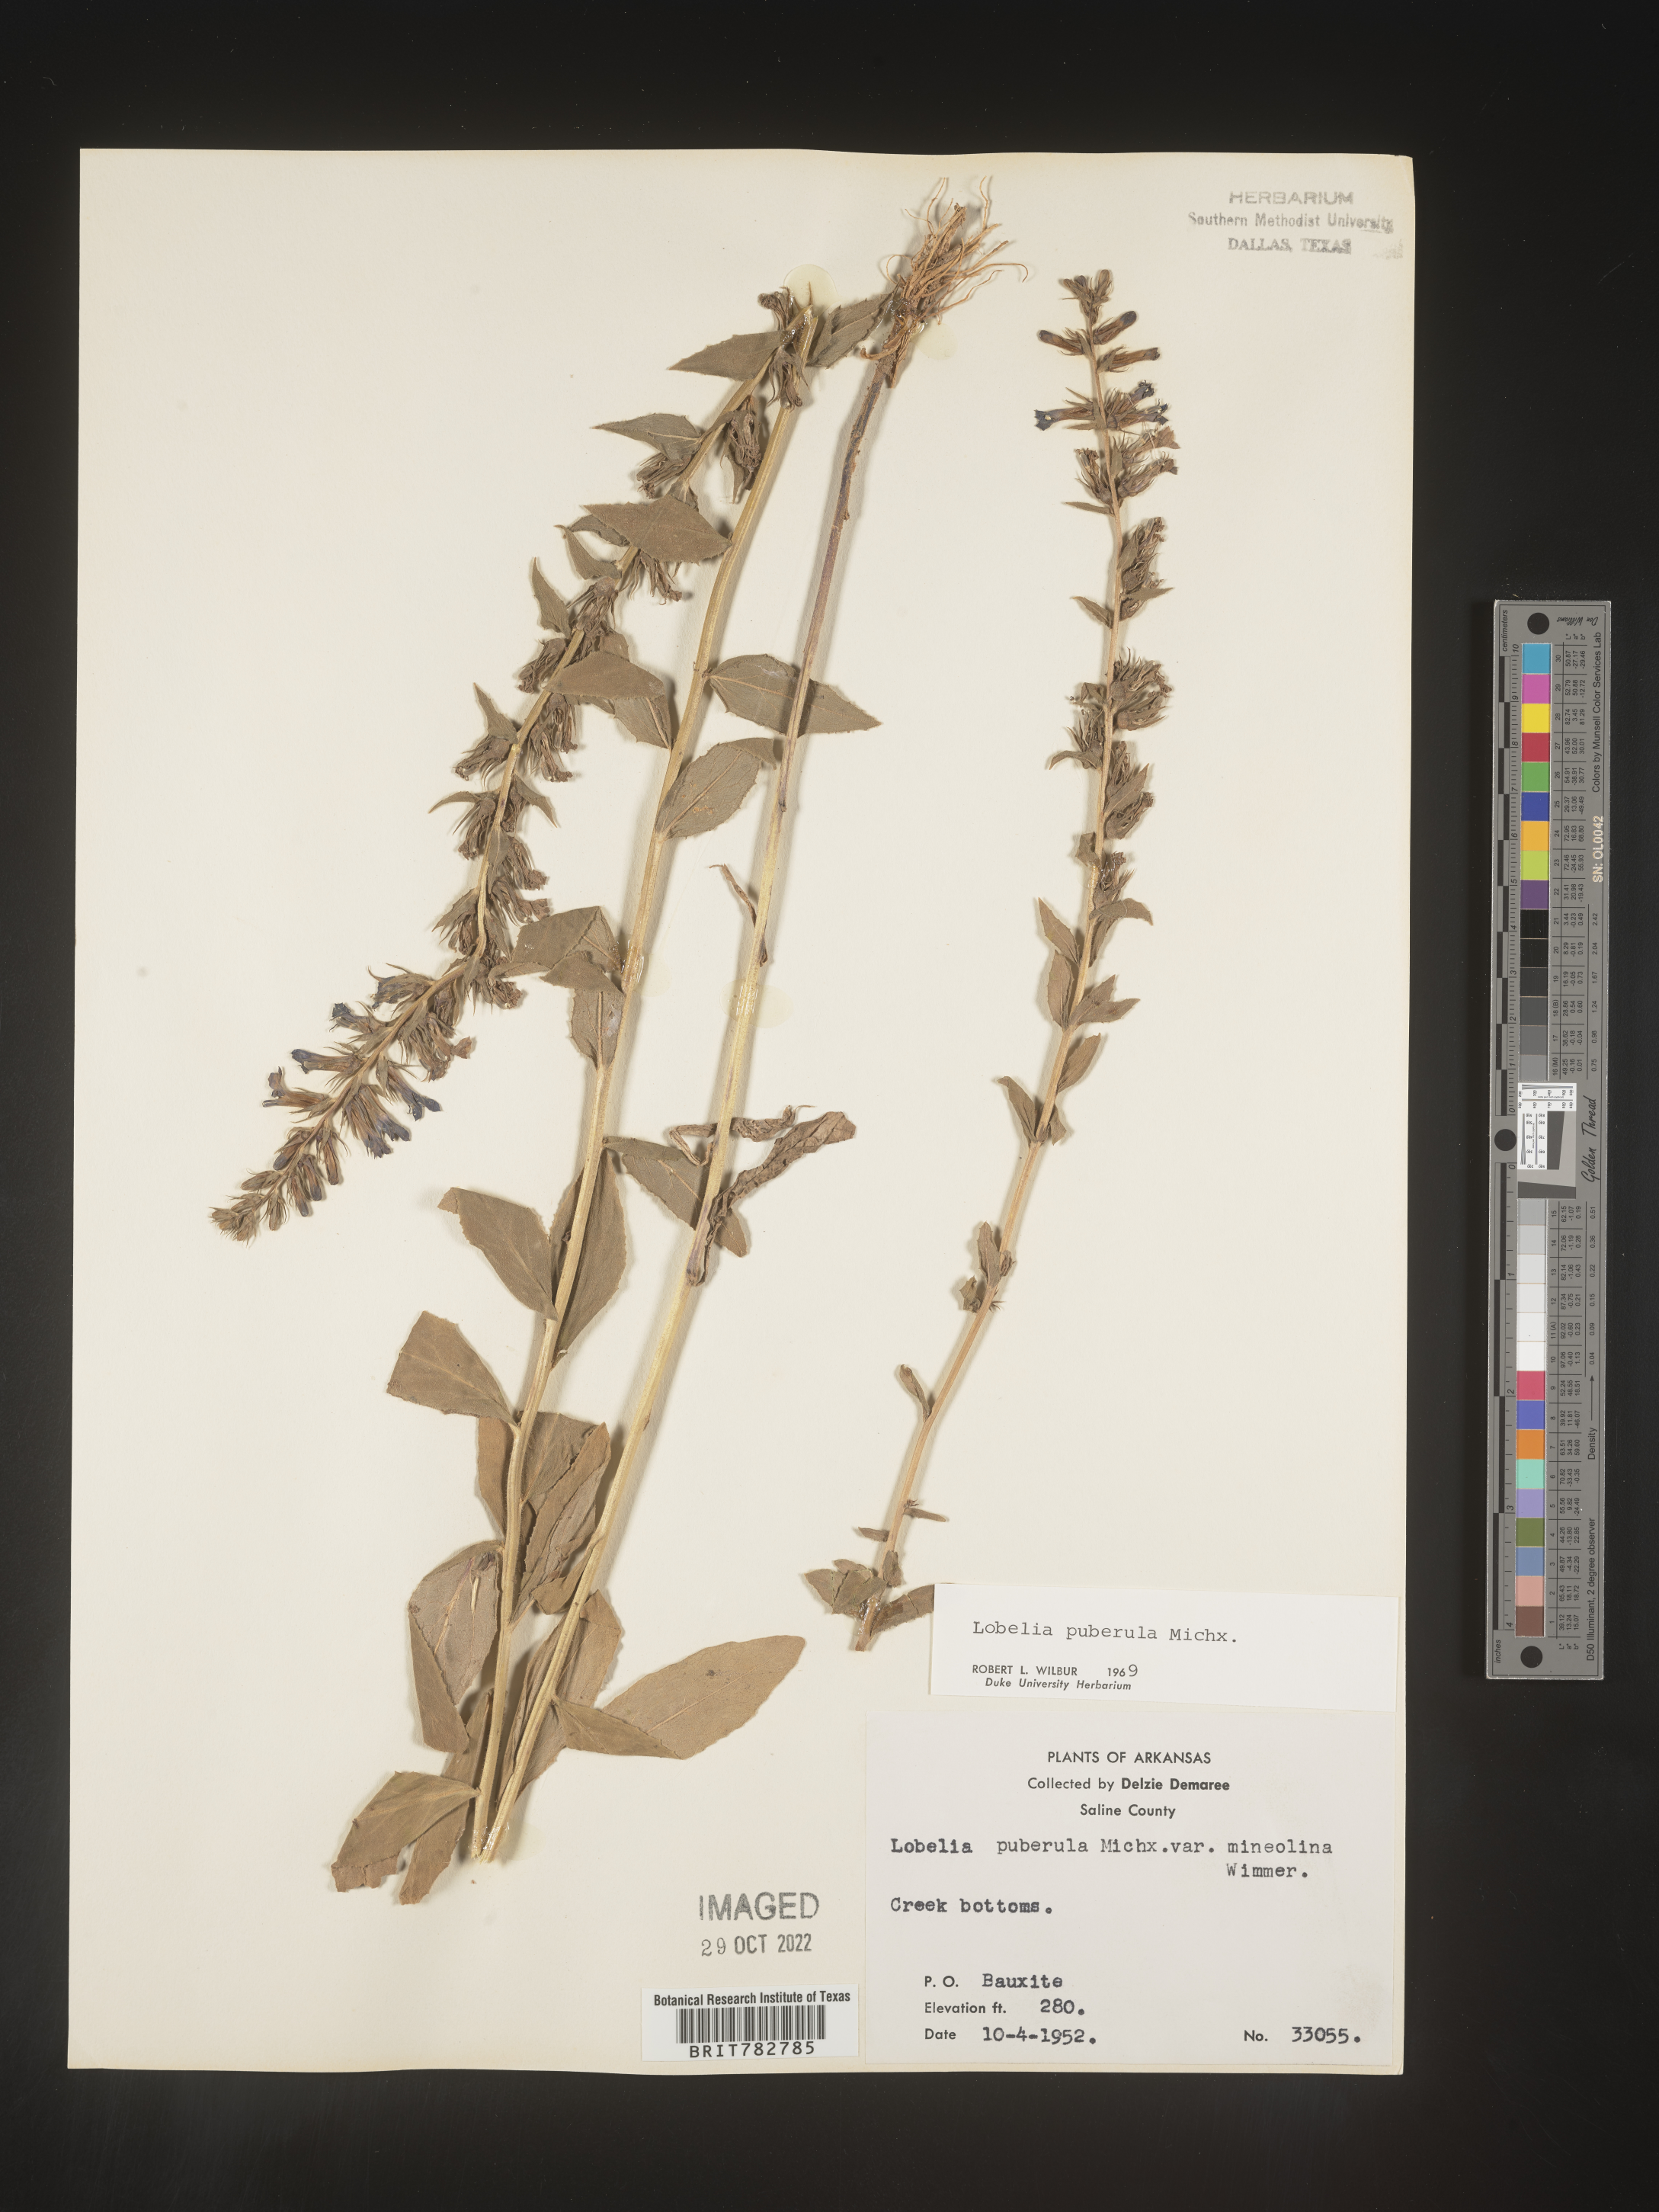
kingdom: Plantae
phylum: Tracheophyta
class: Magnoliopsida
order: Asterales
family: Campanulaceae
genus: Lobelia
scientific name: Lobelia puberula
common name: Purple dewdrop
